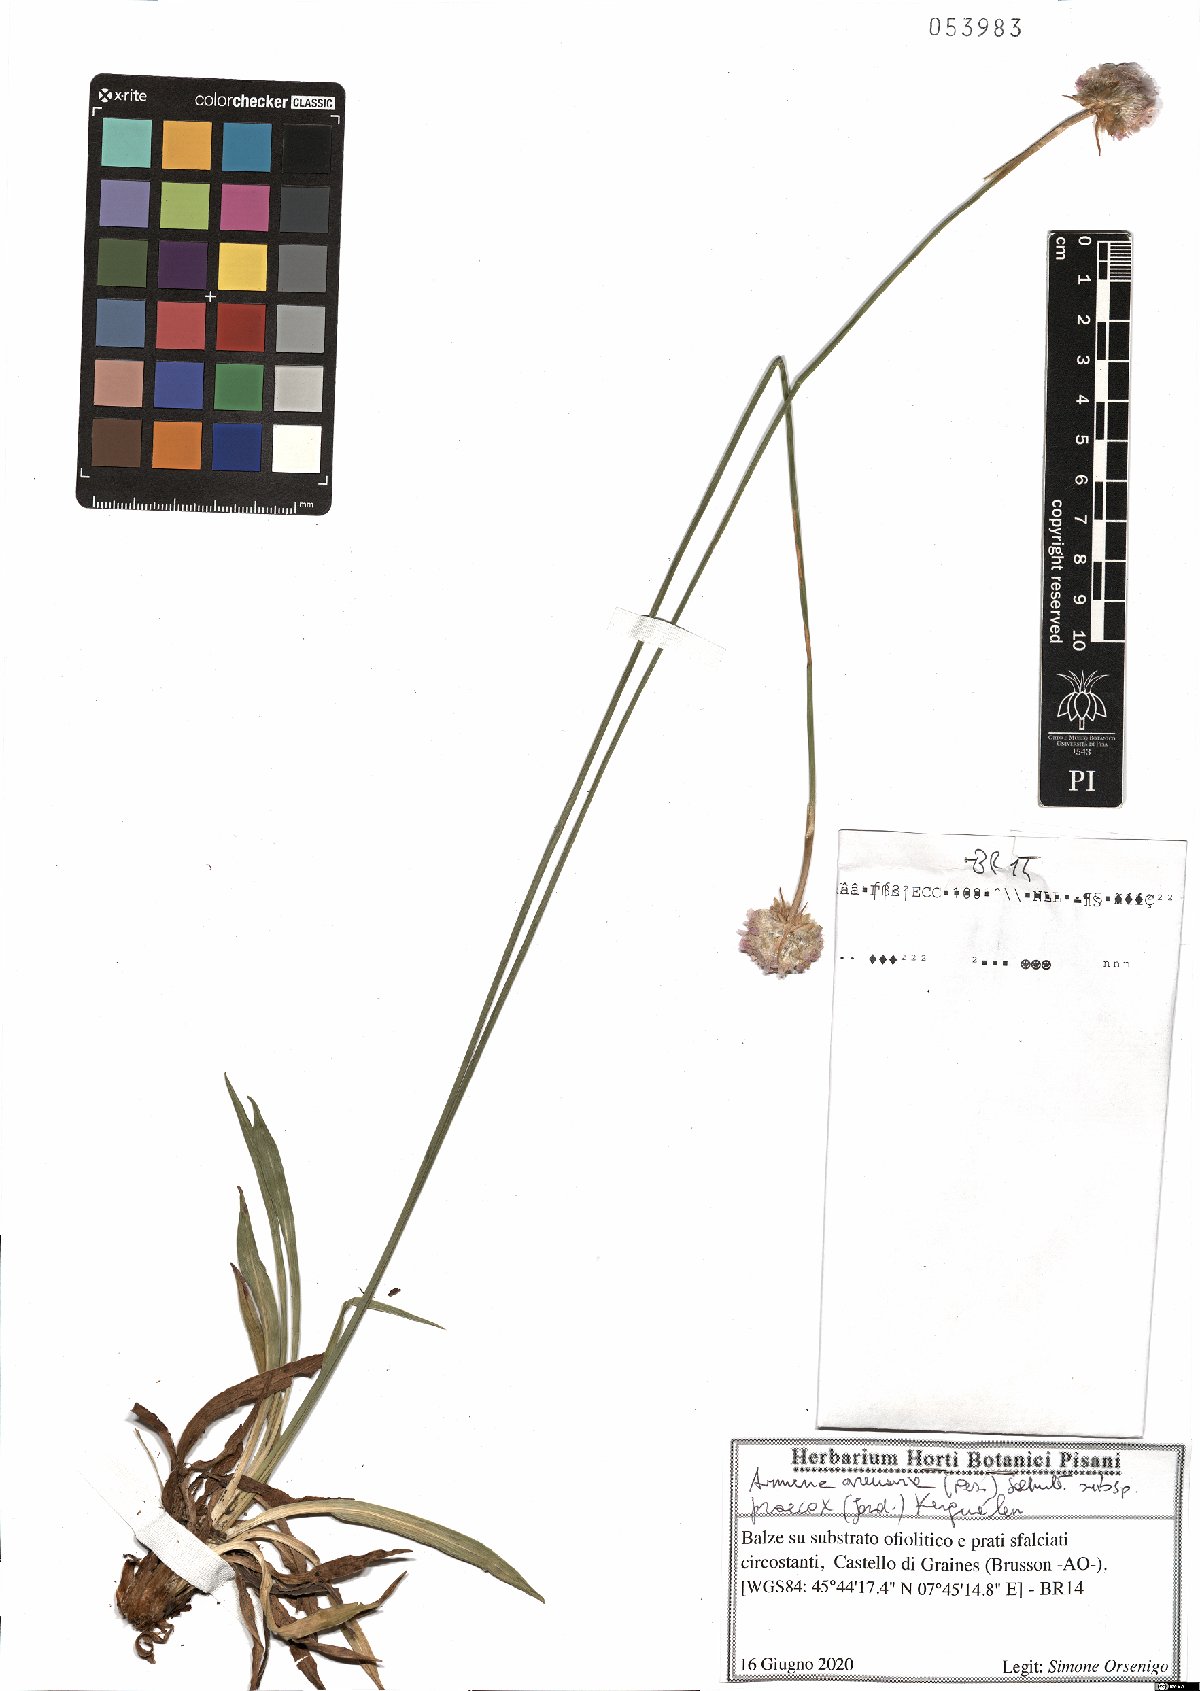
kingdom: Plantae
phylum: Tracheophyta
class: Magnoliopsida
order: Caryophyllales
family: Plumbaginaceae
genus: Armeria
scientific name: Armeria arenaria
